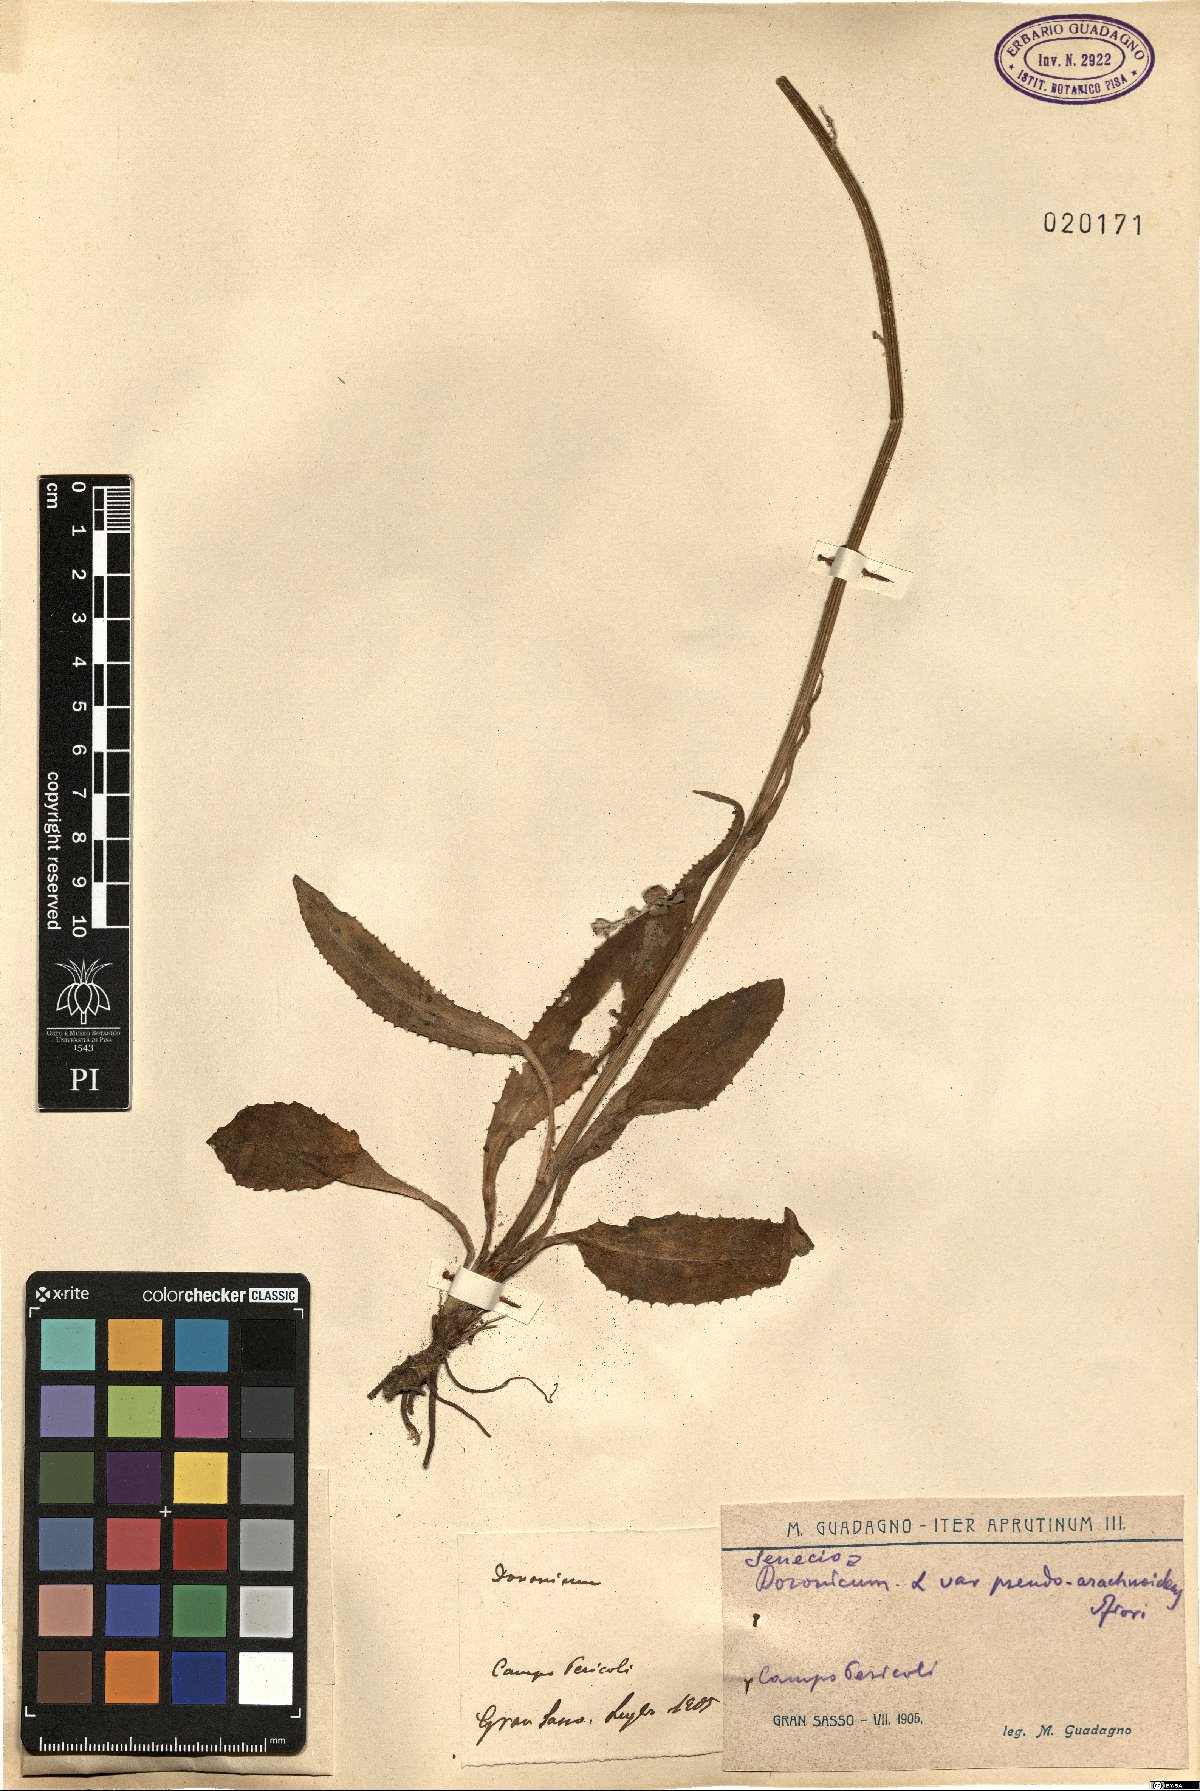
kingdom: Plantae
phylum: Tracheophyta
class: Magnoliopsida
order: Asterales
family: Asteraceae
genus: Senecio
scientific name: Senecio doronicum
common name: Chamois ragwort
